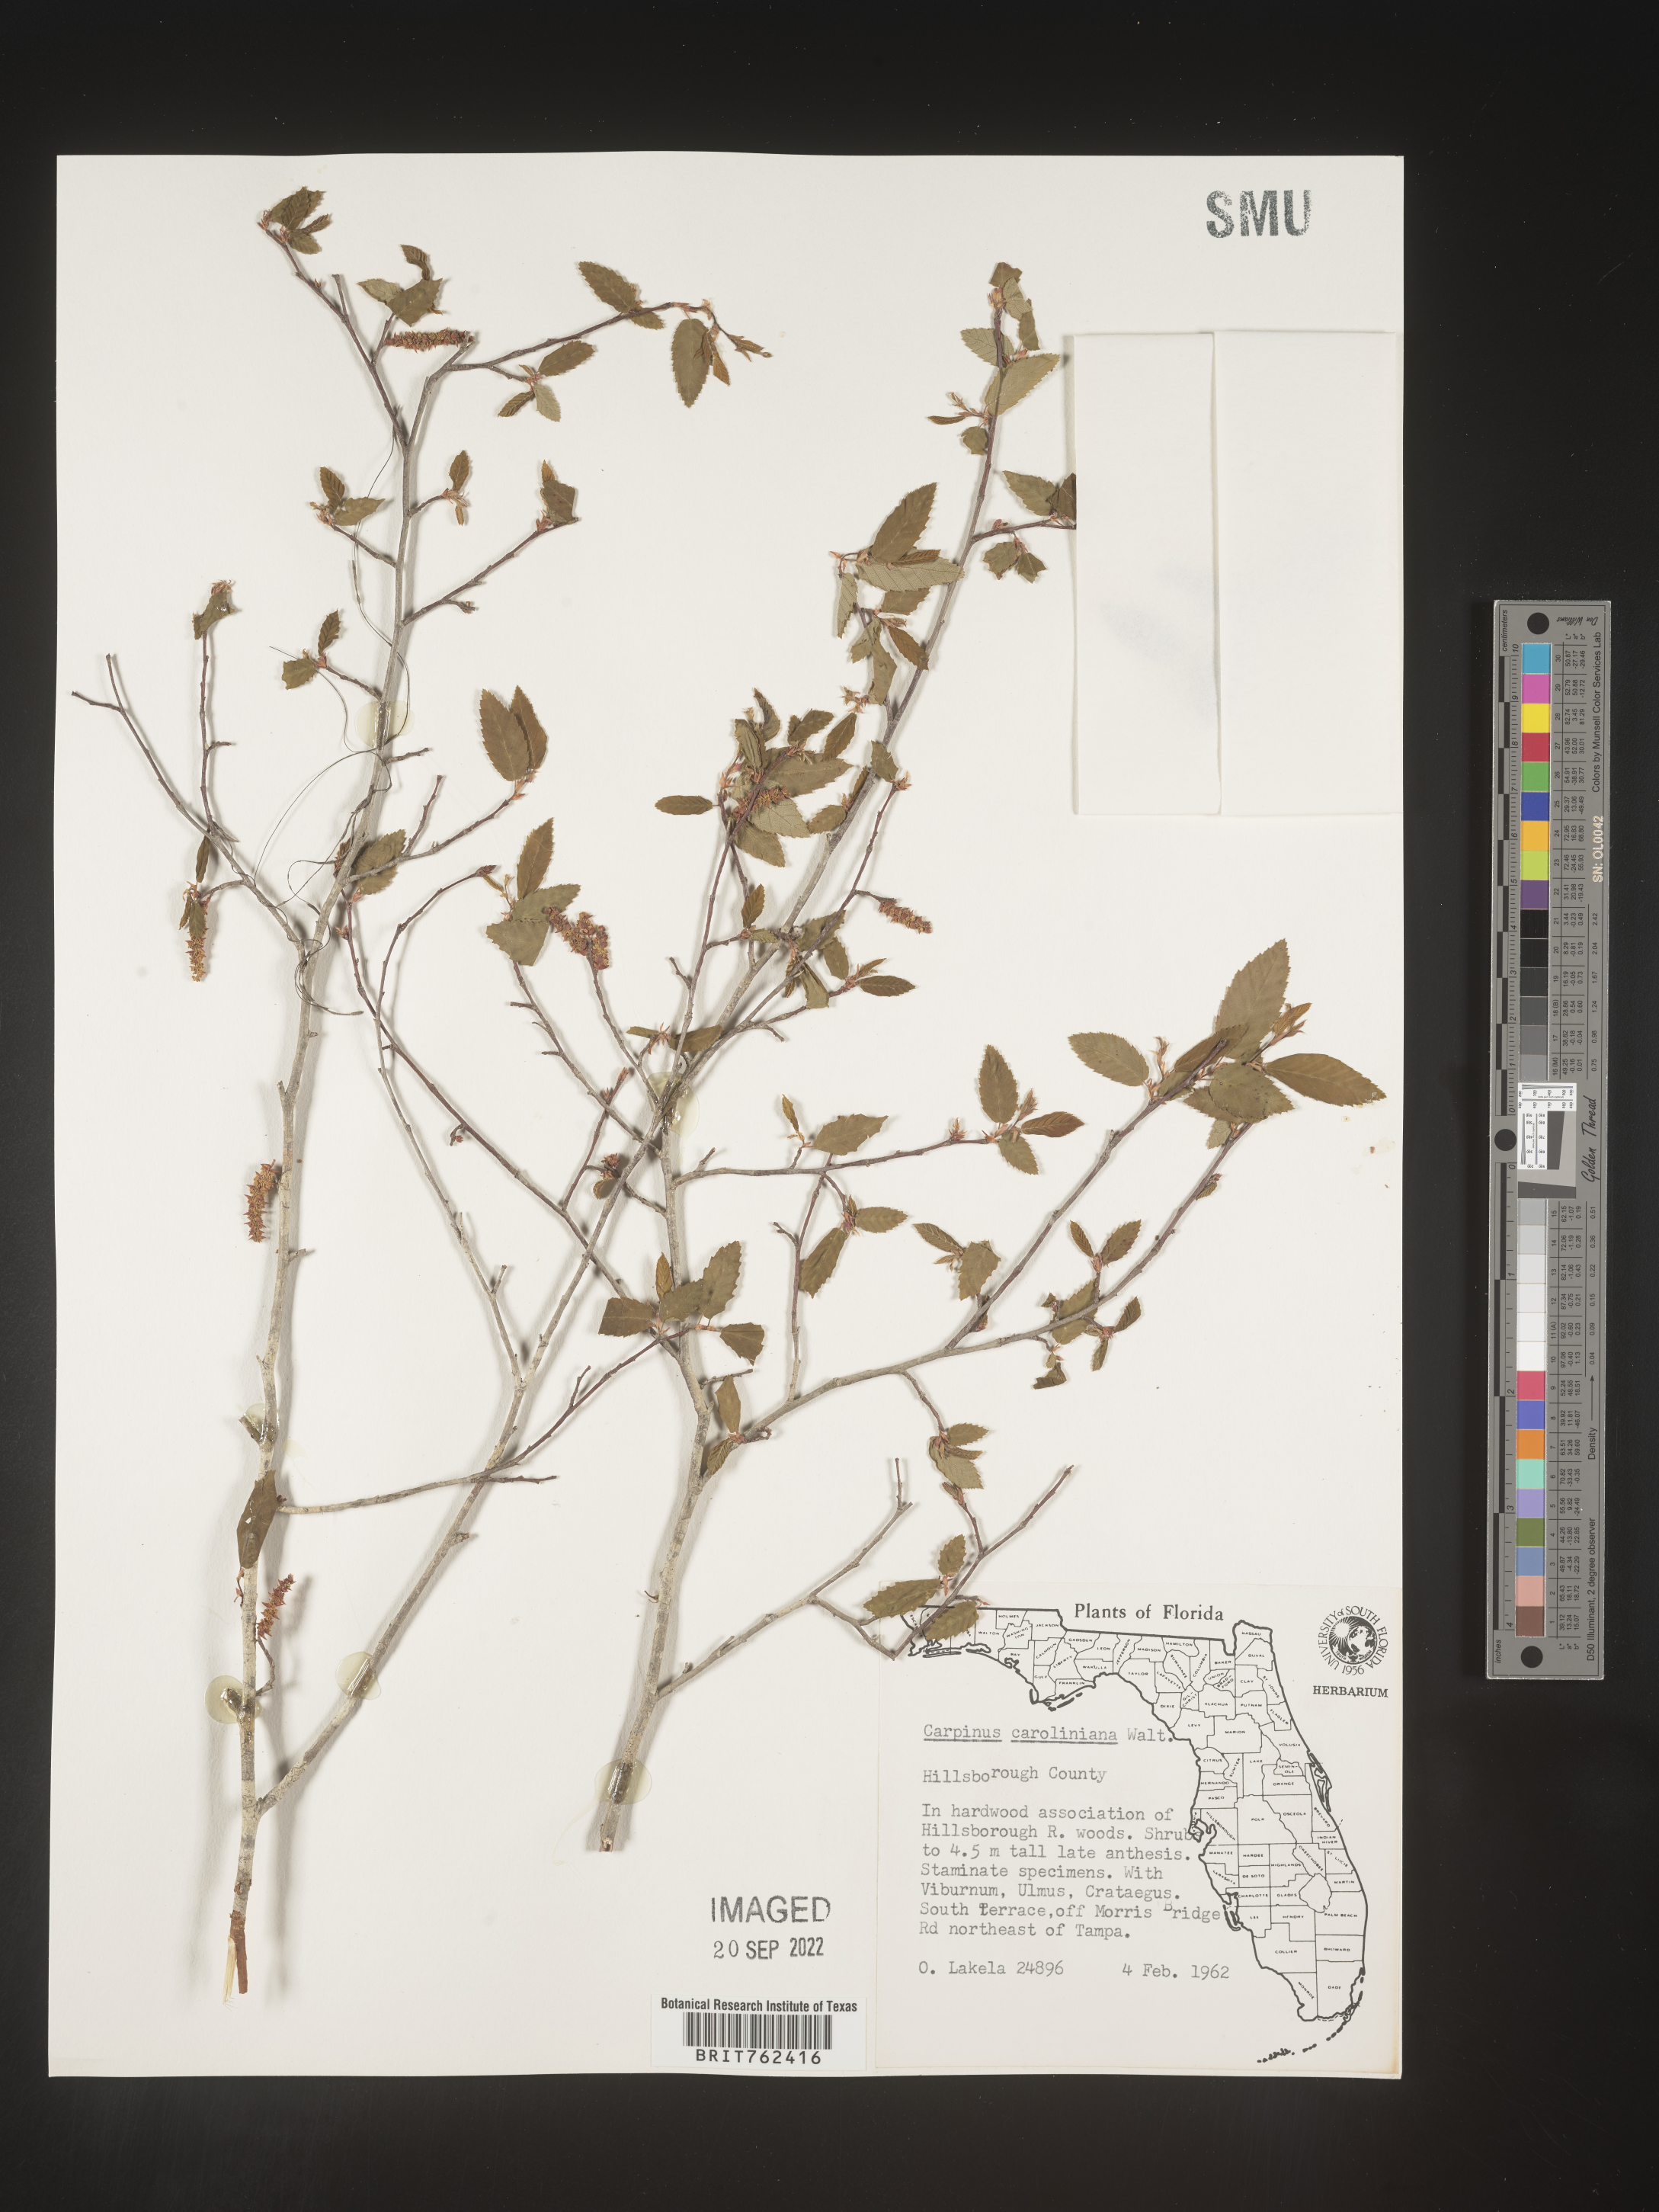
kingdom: Plantae
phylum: Tracheophyta
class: Magnoliopsida
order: Fagales
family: Betulaceae
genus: Carpinus
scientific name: Carpinus caroliniana
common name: American hornbeam
